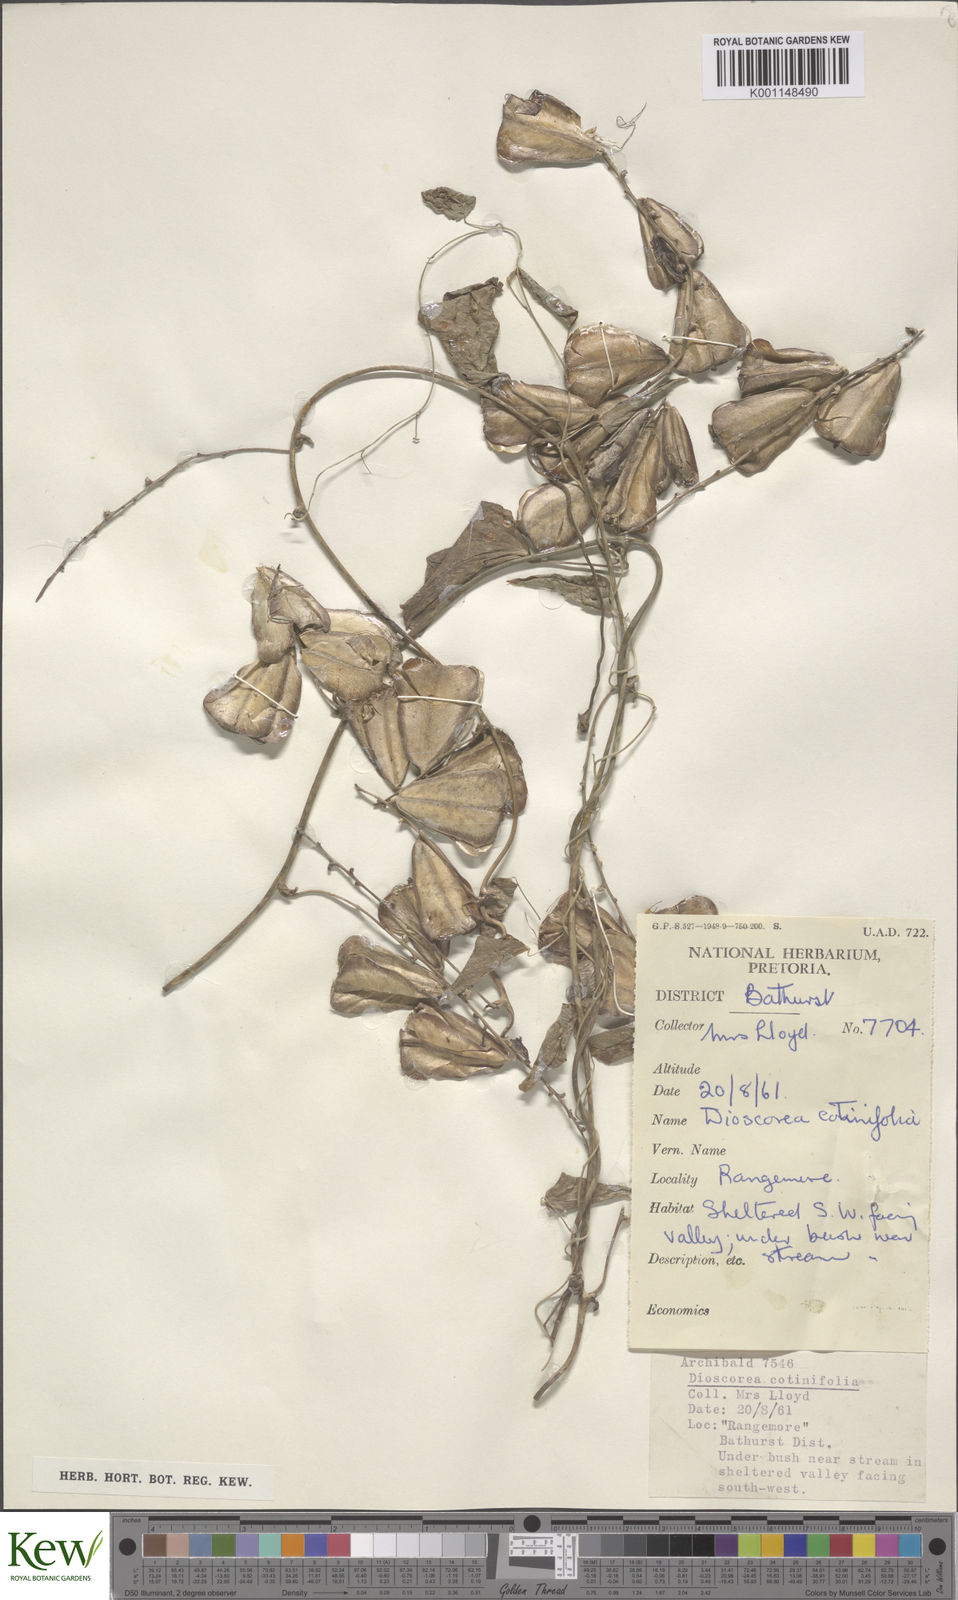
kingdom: Plantae
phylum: Tracheophyta
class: Liliopsida
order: Dioscoreales
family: Dioscoreaceae
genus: Dioscorea
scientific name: Dioscorea cotinifolia
